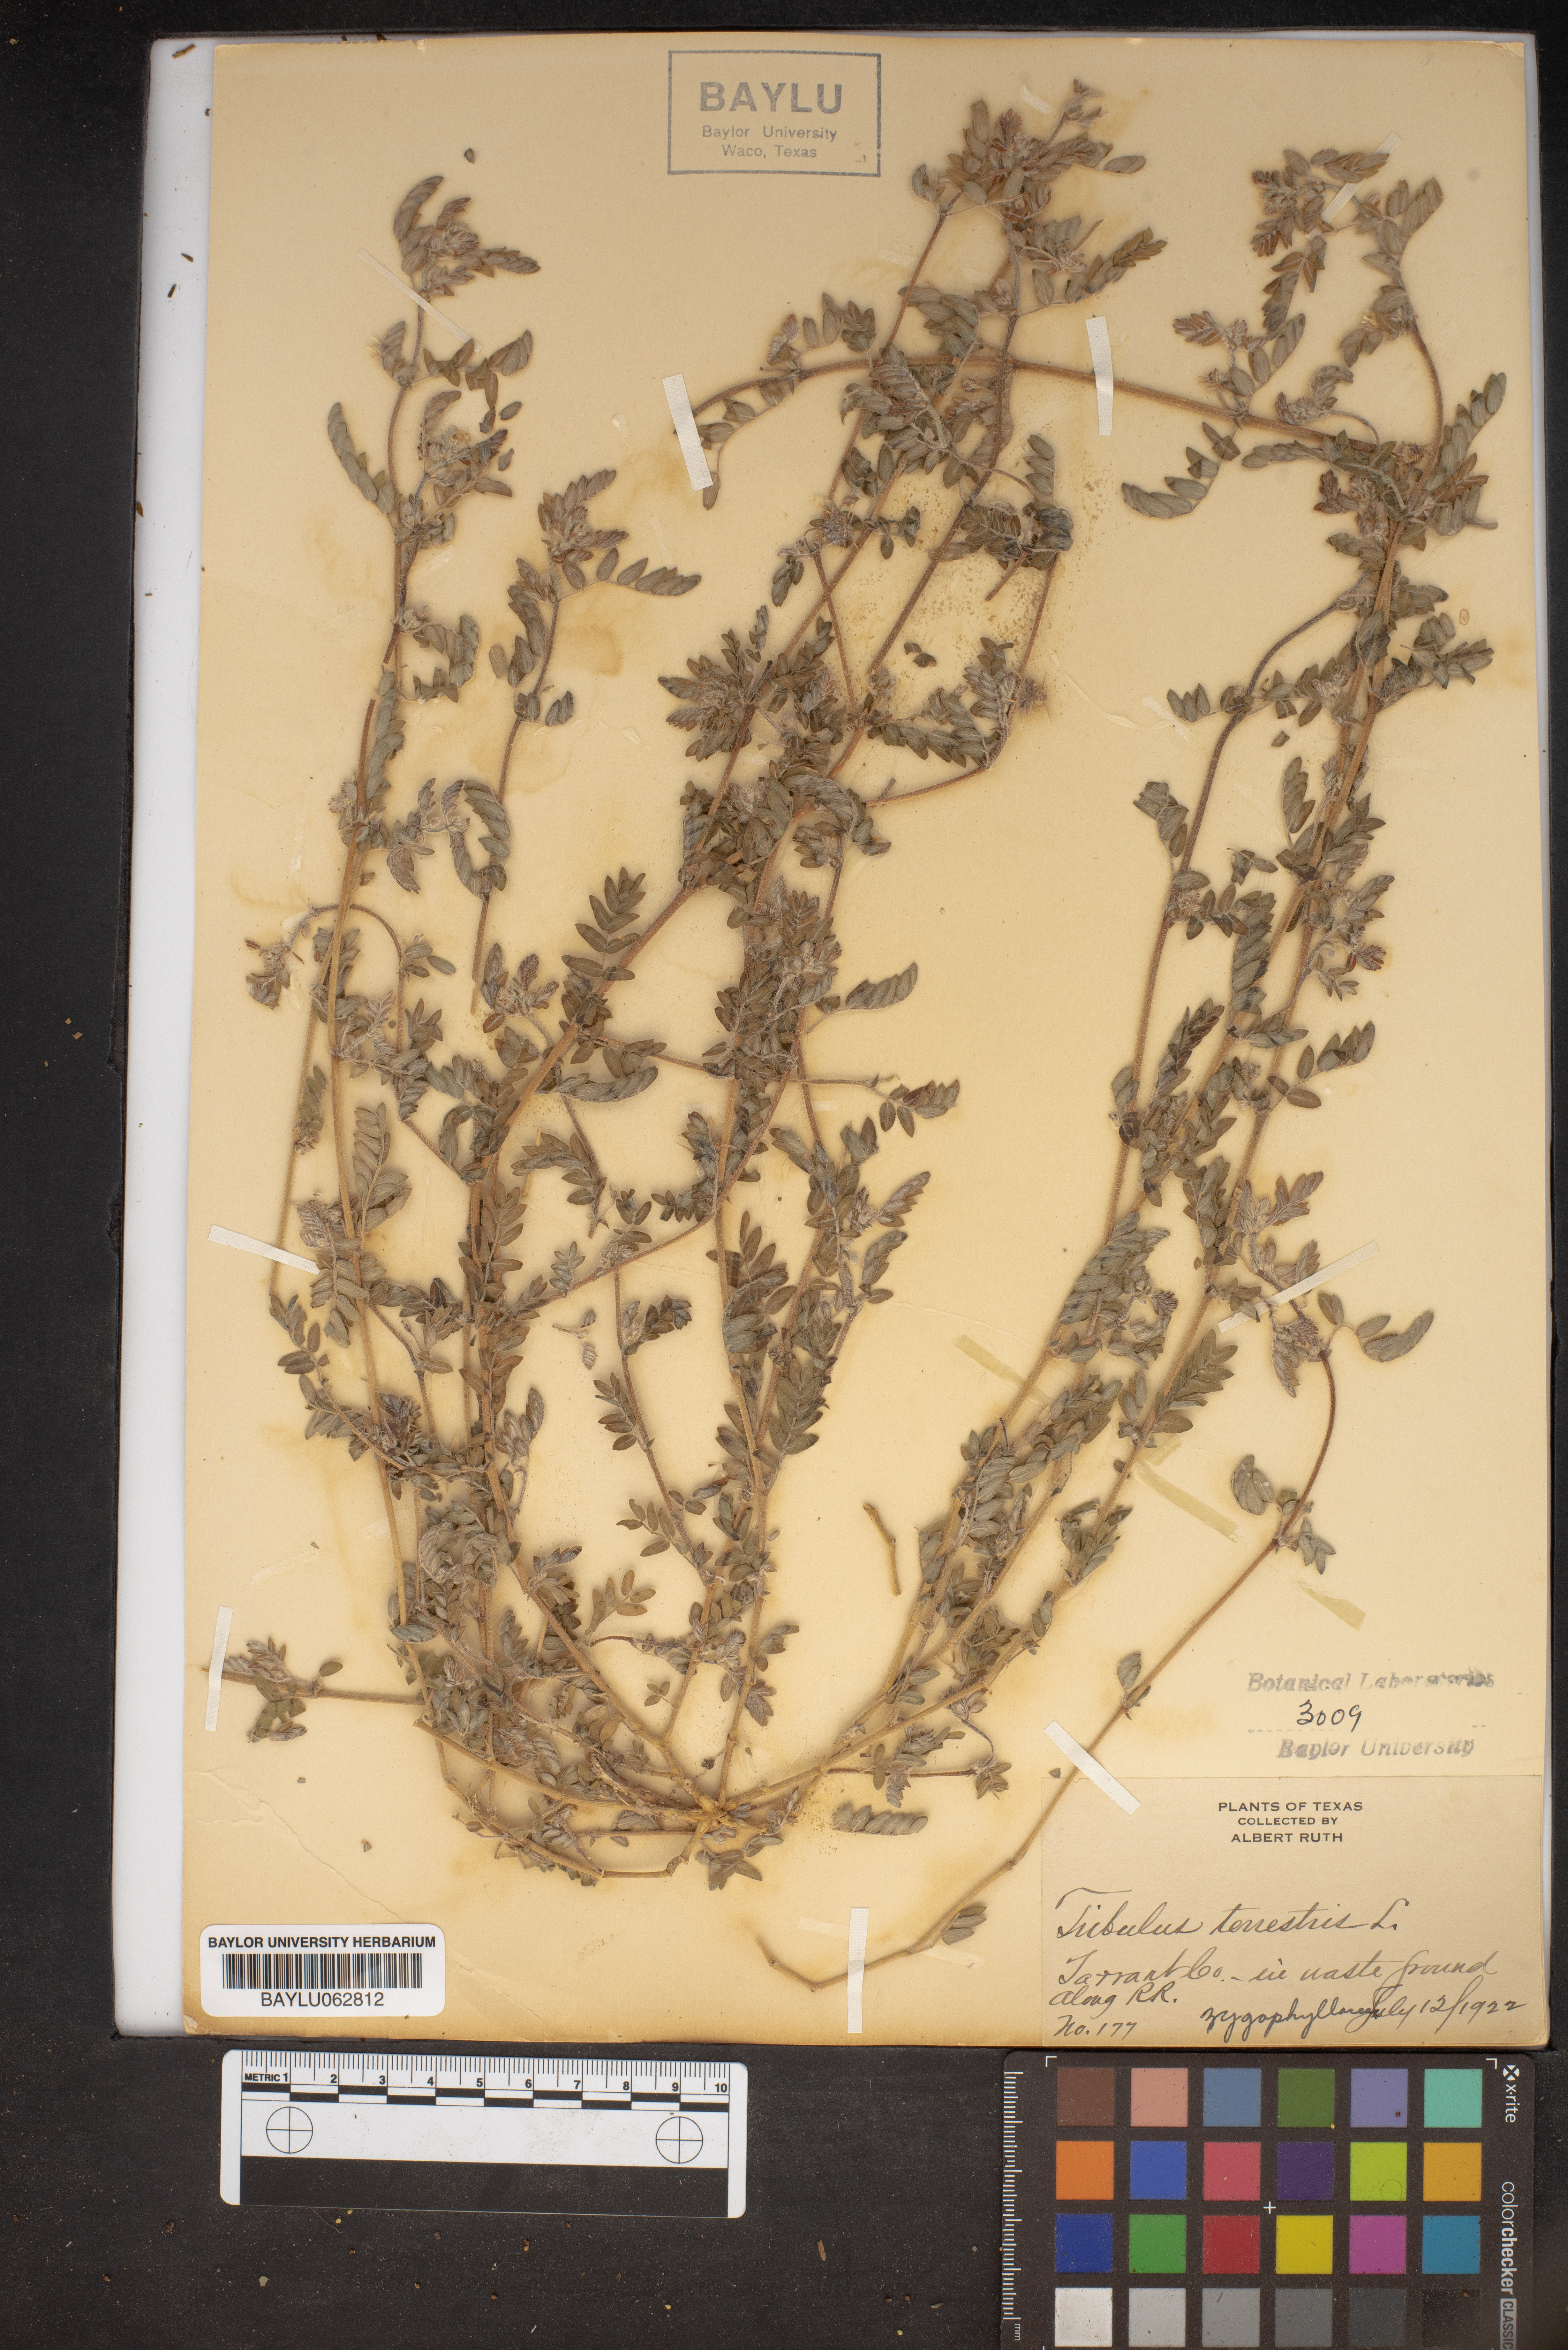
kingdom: Plantae
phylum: Tracheophyta
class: Magnoliopsida
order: Zygophyllales
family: Zygophyllaceae
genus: Tribulus
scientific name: Tribulus terrestris
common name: Puncturevine
